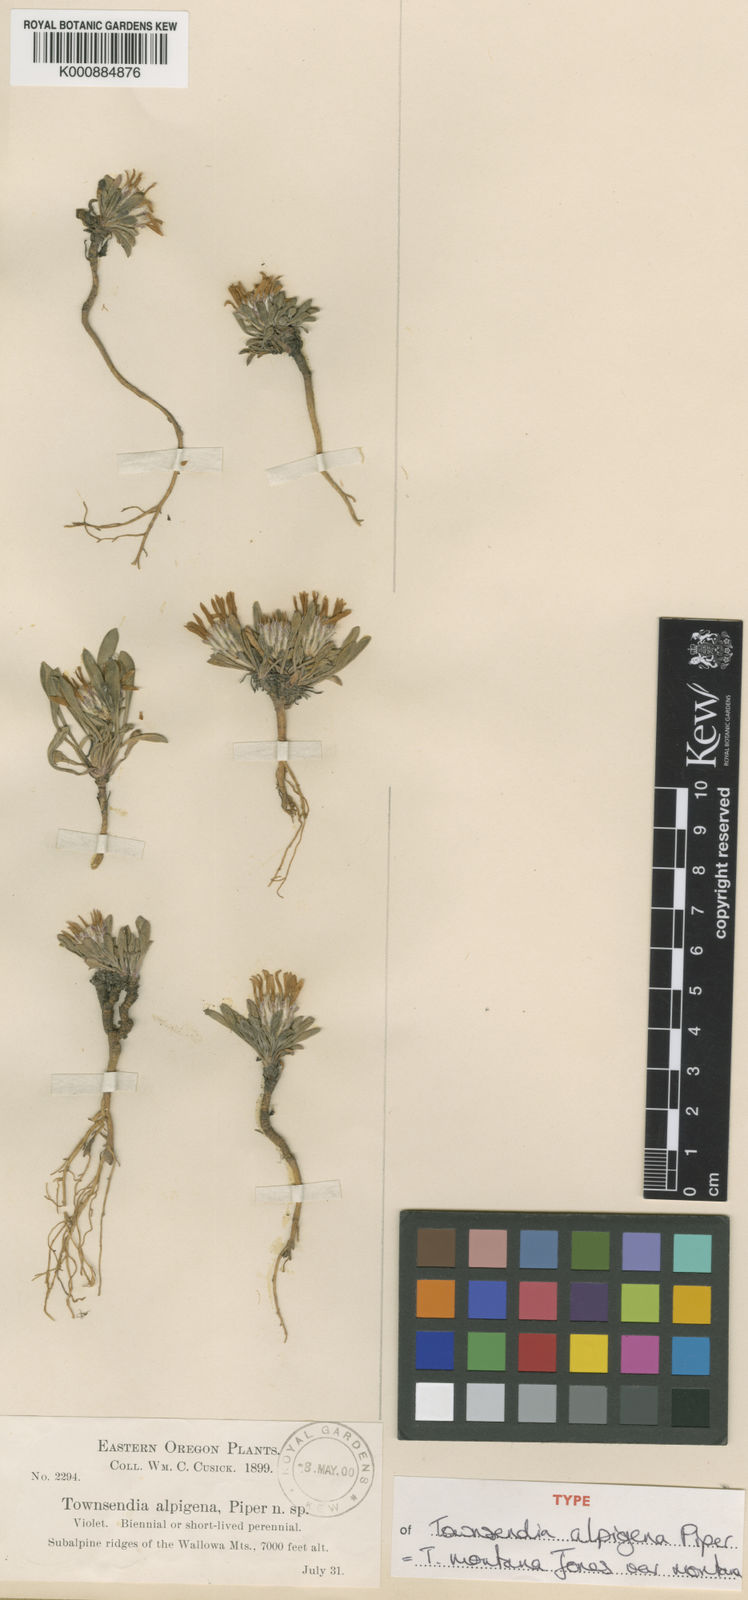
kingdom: Plantae
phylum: Tracheophyta
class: Magnoliopsida
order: Asterales
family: Asteraceae
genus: Townsendia
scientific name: Townsendia montana
